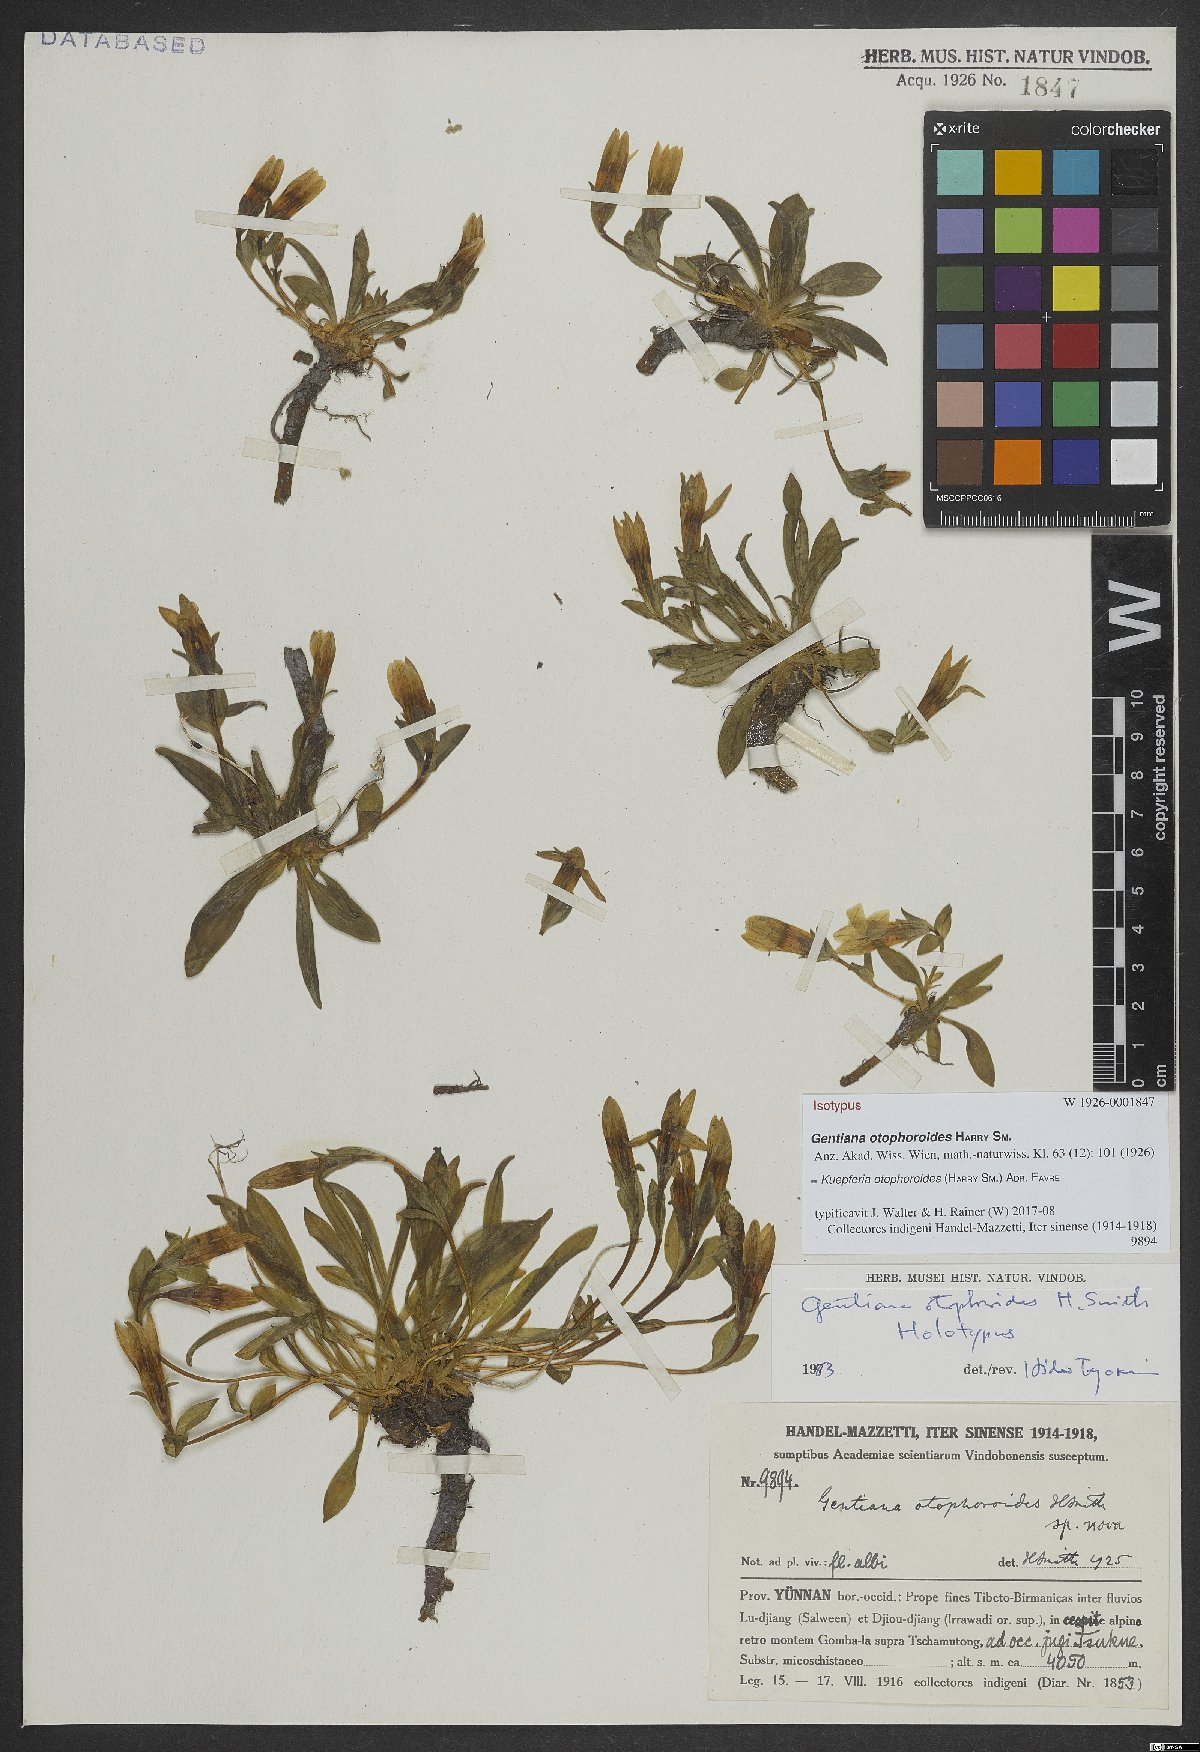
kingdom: Plantae
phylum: Tracheophyta
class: Magnoliopsida
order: Gentianales
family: Gentianaceae
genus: Kuepferia
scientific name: Kuepferia otophoroides
